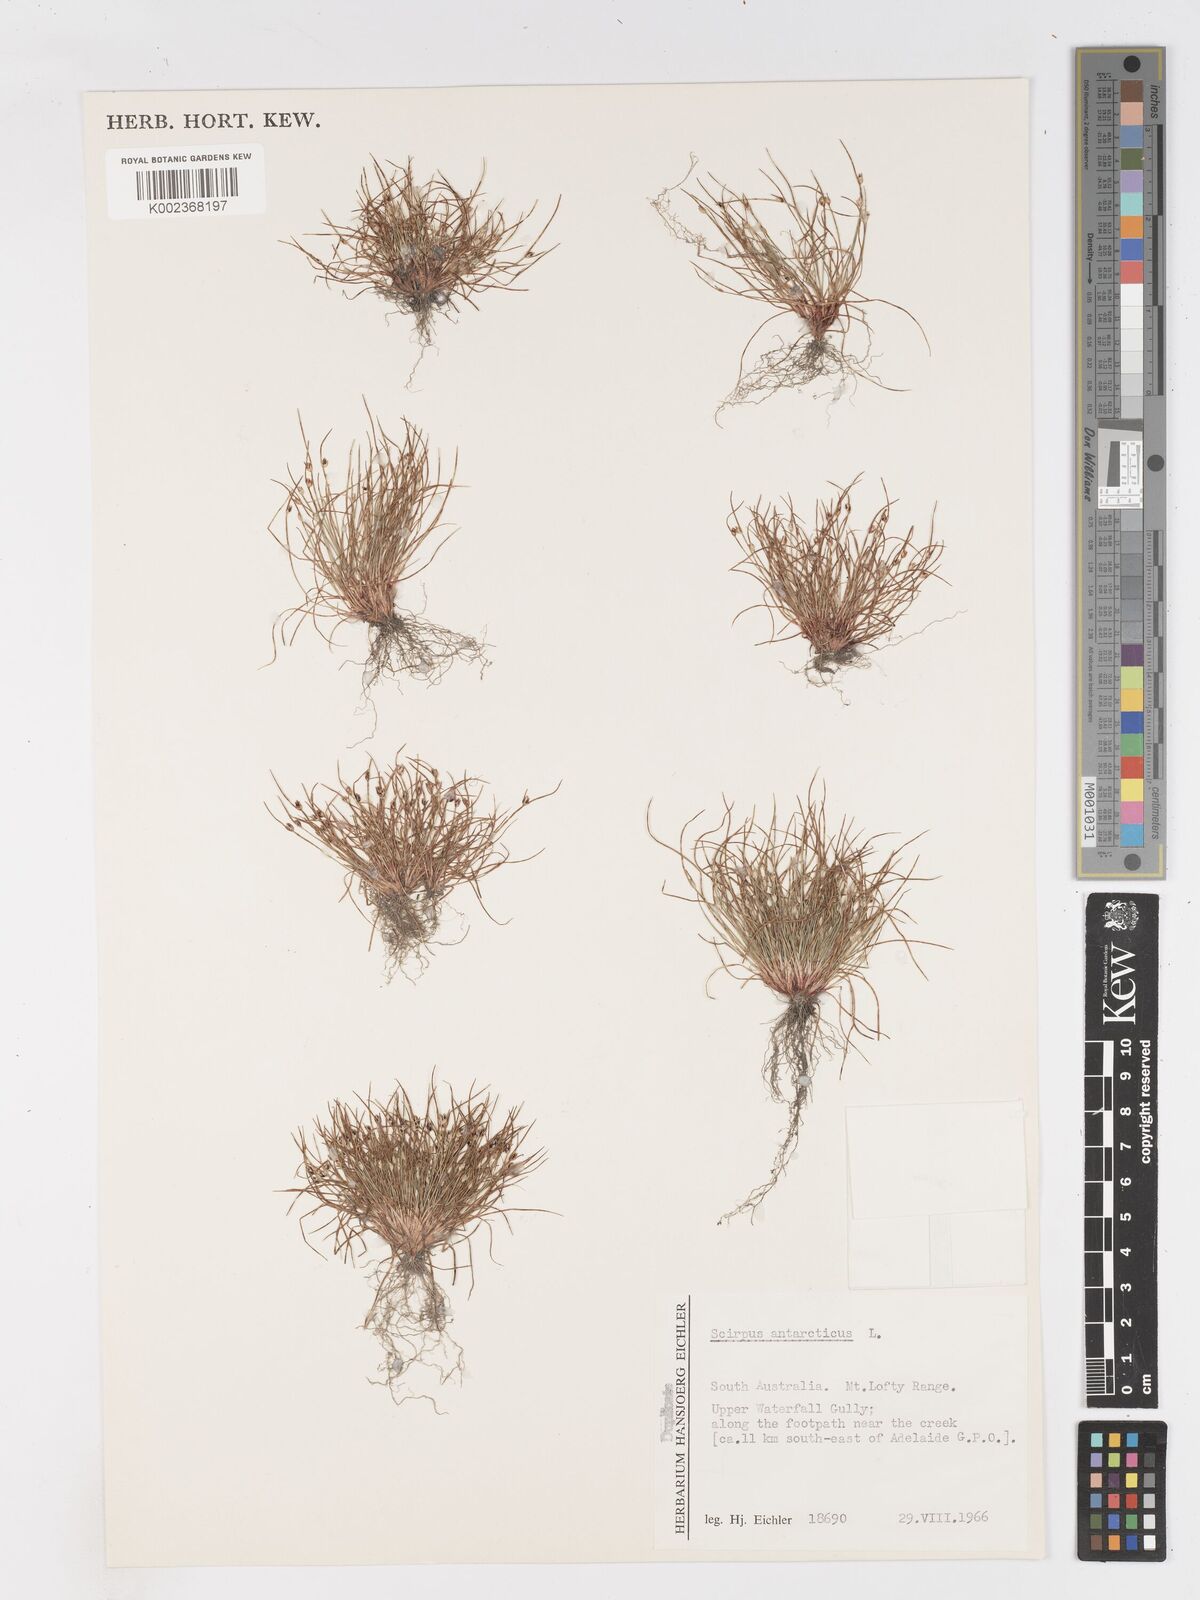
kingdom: Plantae
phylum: Tracheophyta
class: Liliopsida
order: Poales
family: Cyperaceae
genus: Isolepis
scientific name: Isolepis antarctica
